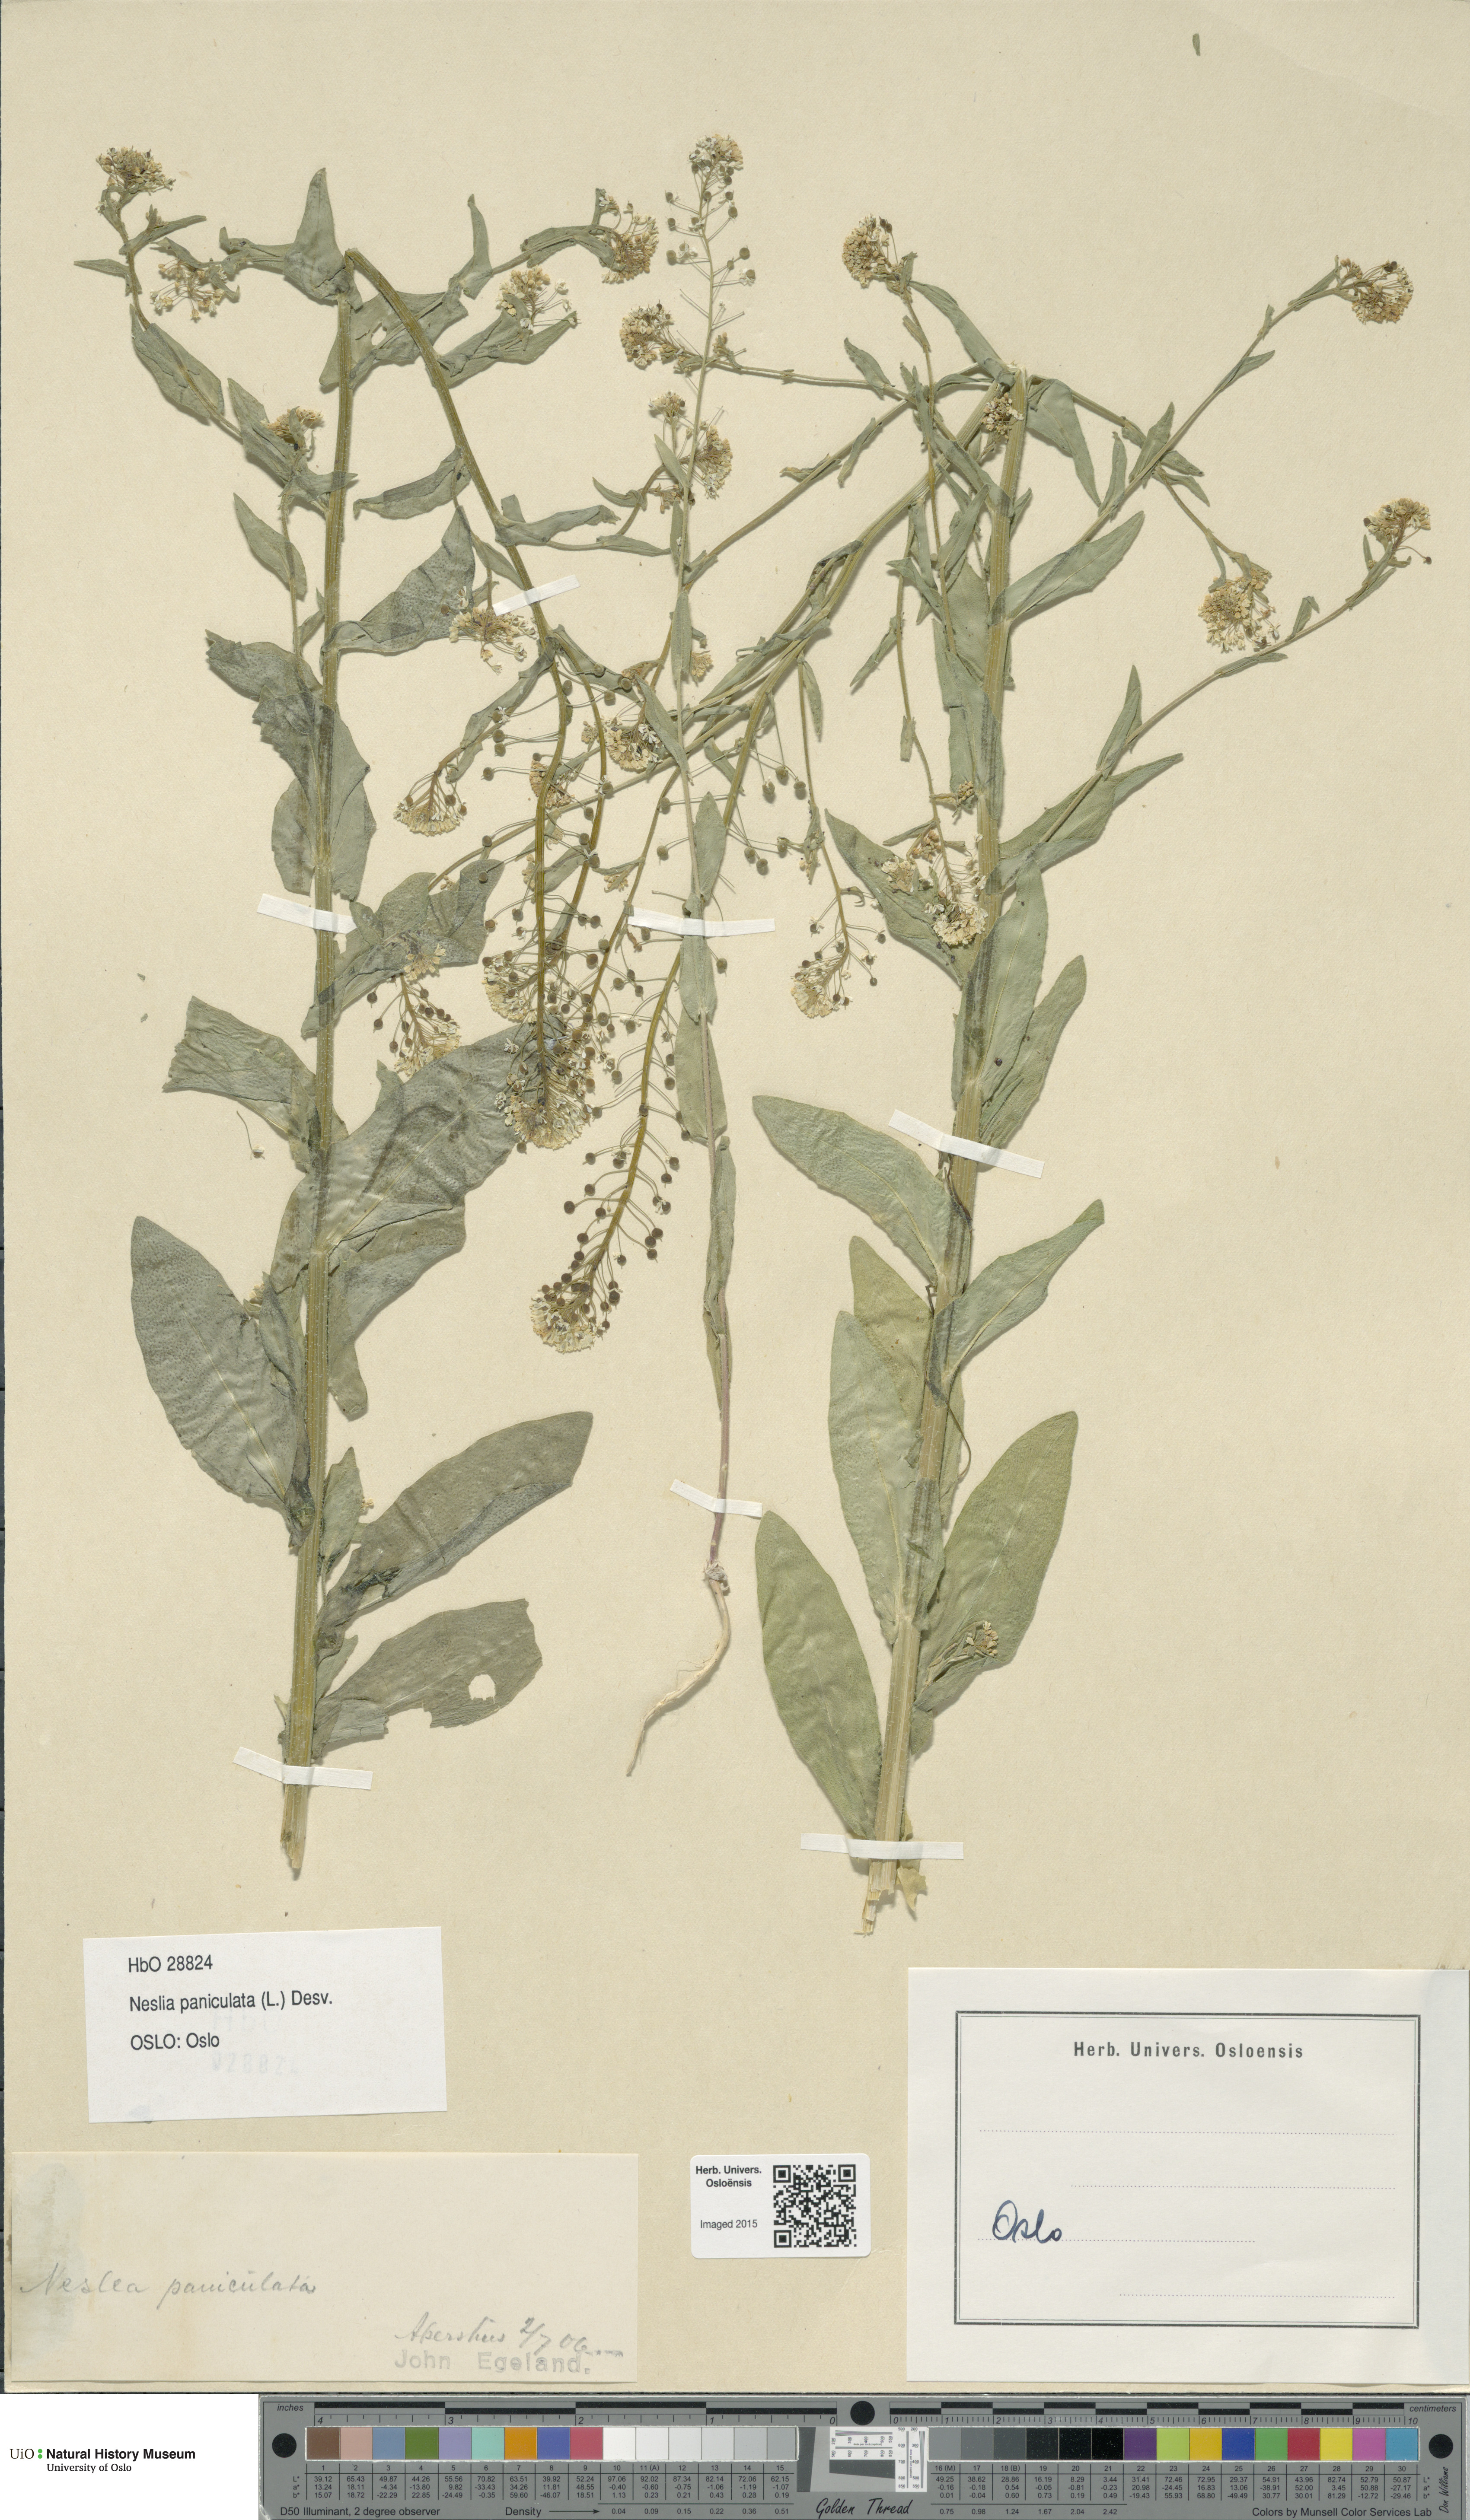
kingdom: Plantae
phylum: Tracheophyta
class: Magnoliopsida
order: Brassicales
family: Brassicaceae
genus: Neslia
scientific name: Neslia paniculata
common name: Ball mustard
